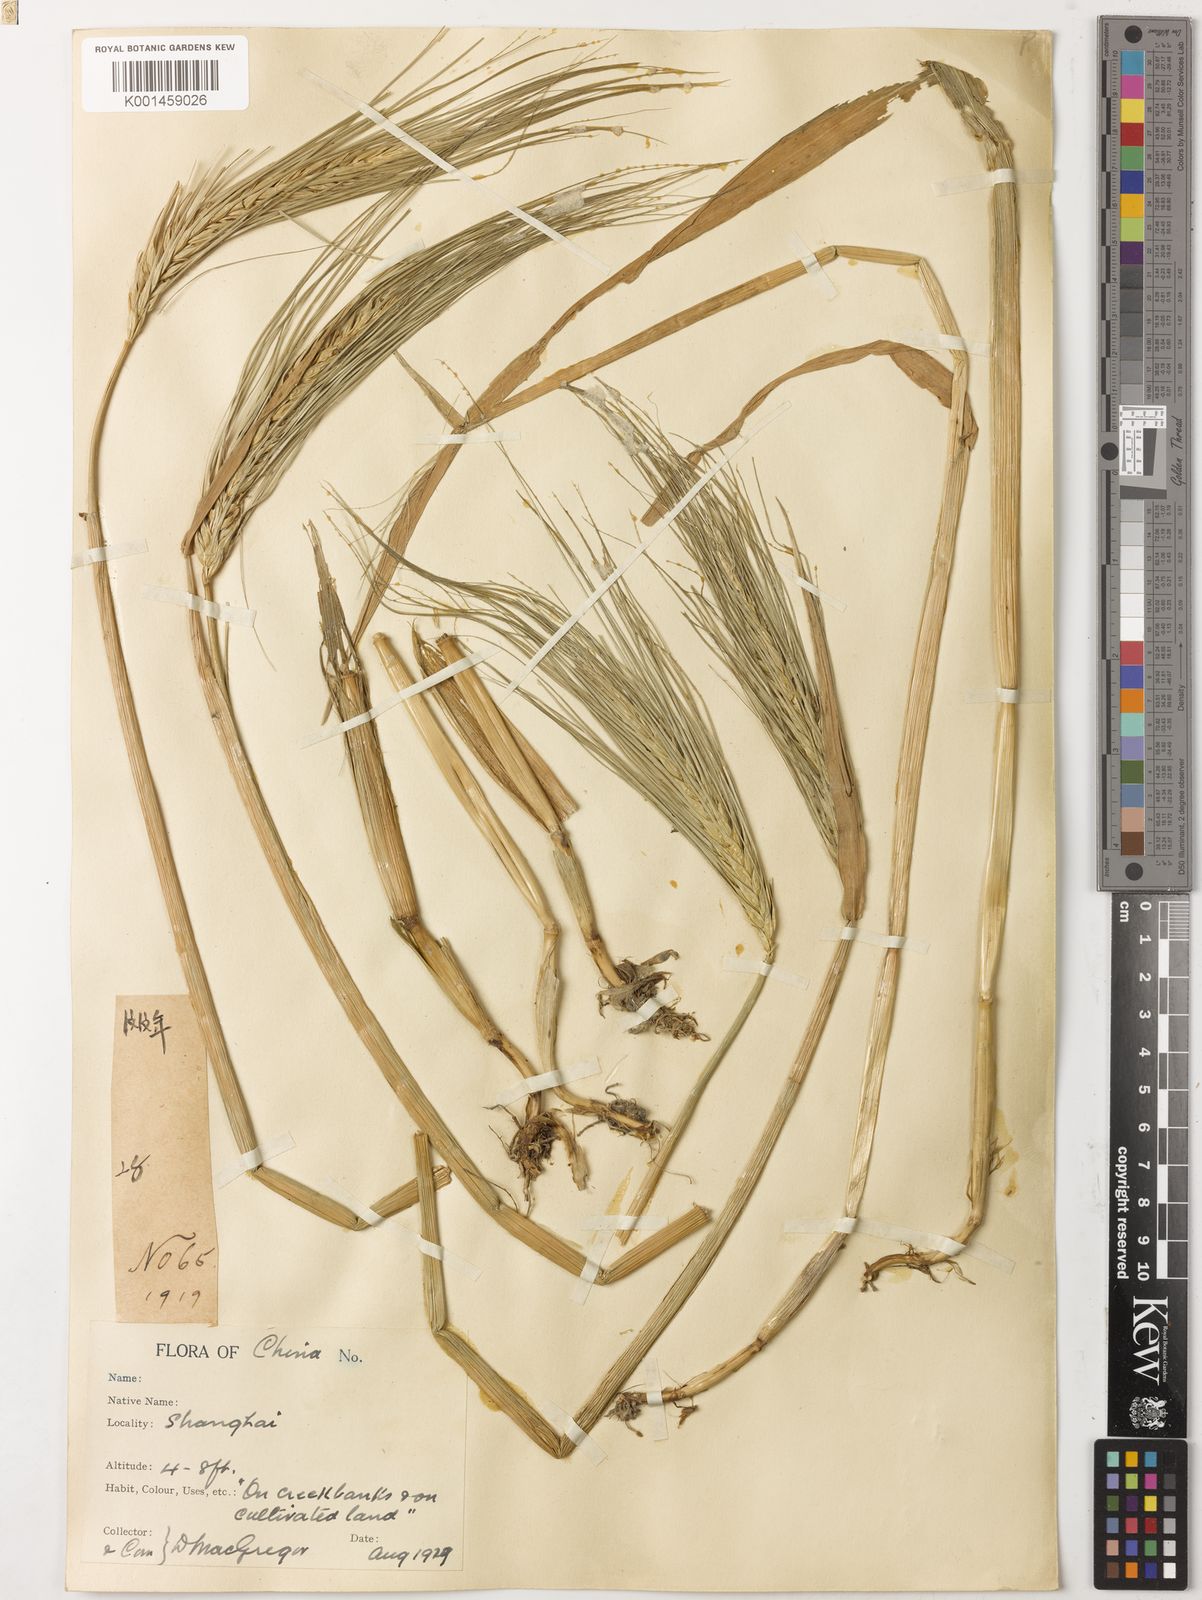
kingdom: Plantae
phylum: Tracheophyta
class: Liliopsida
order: Poales
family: Poaceae
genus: Hordeum
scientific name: Hordeum vulgare
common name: Common barley
